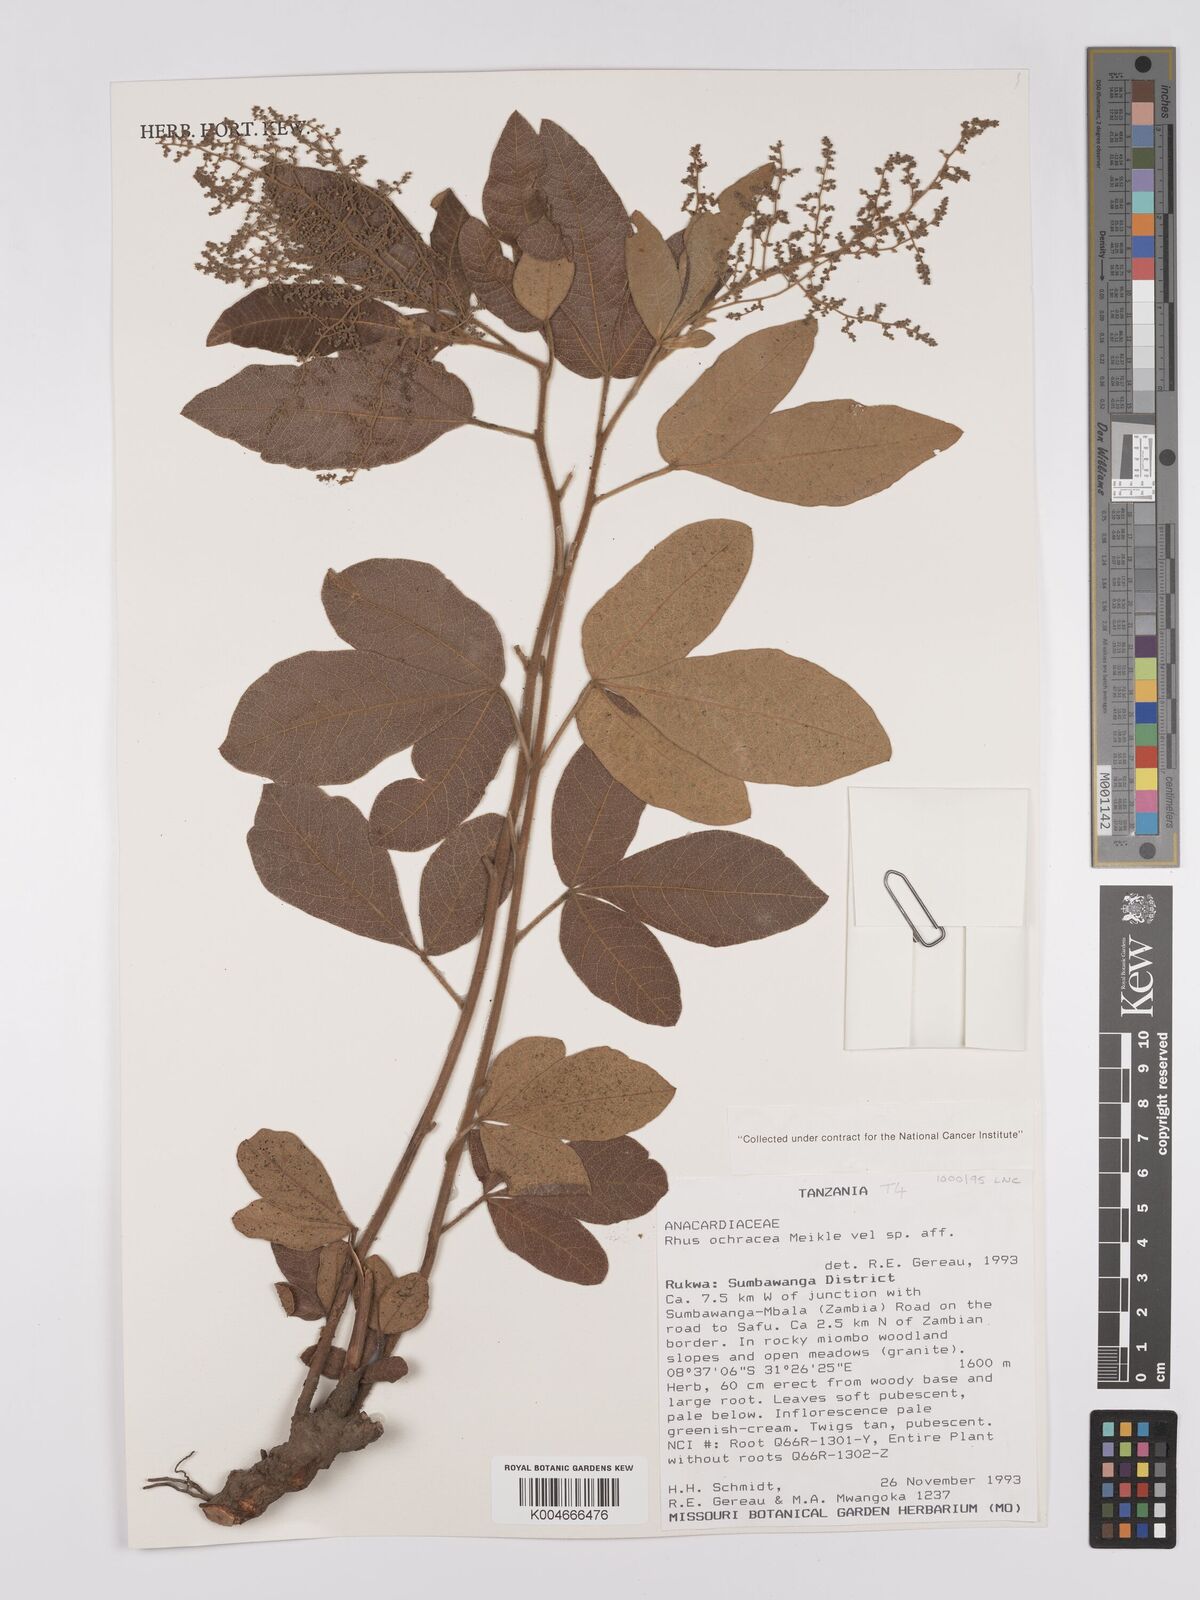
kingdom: Plantae
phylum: Tracheophyta
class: Magnoliopsida
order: Sapindales
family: Anacardiaceae
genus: Searsia
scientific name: Searsia ochracea
